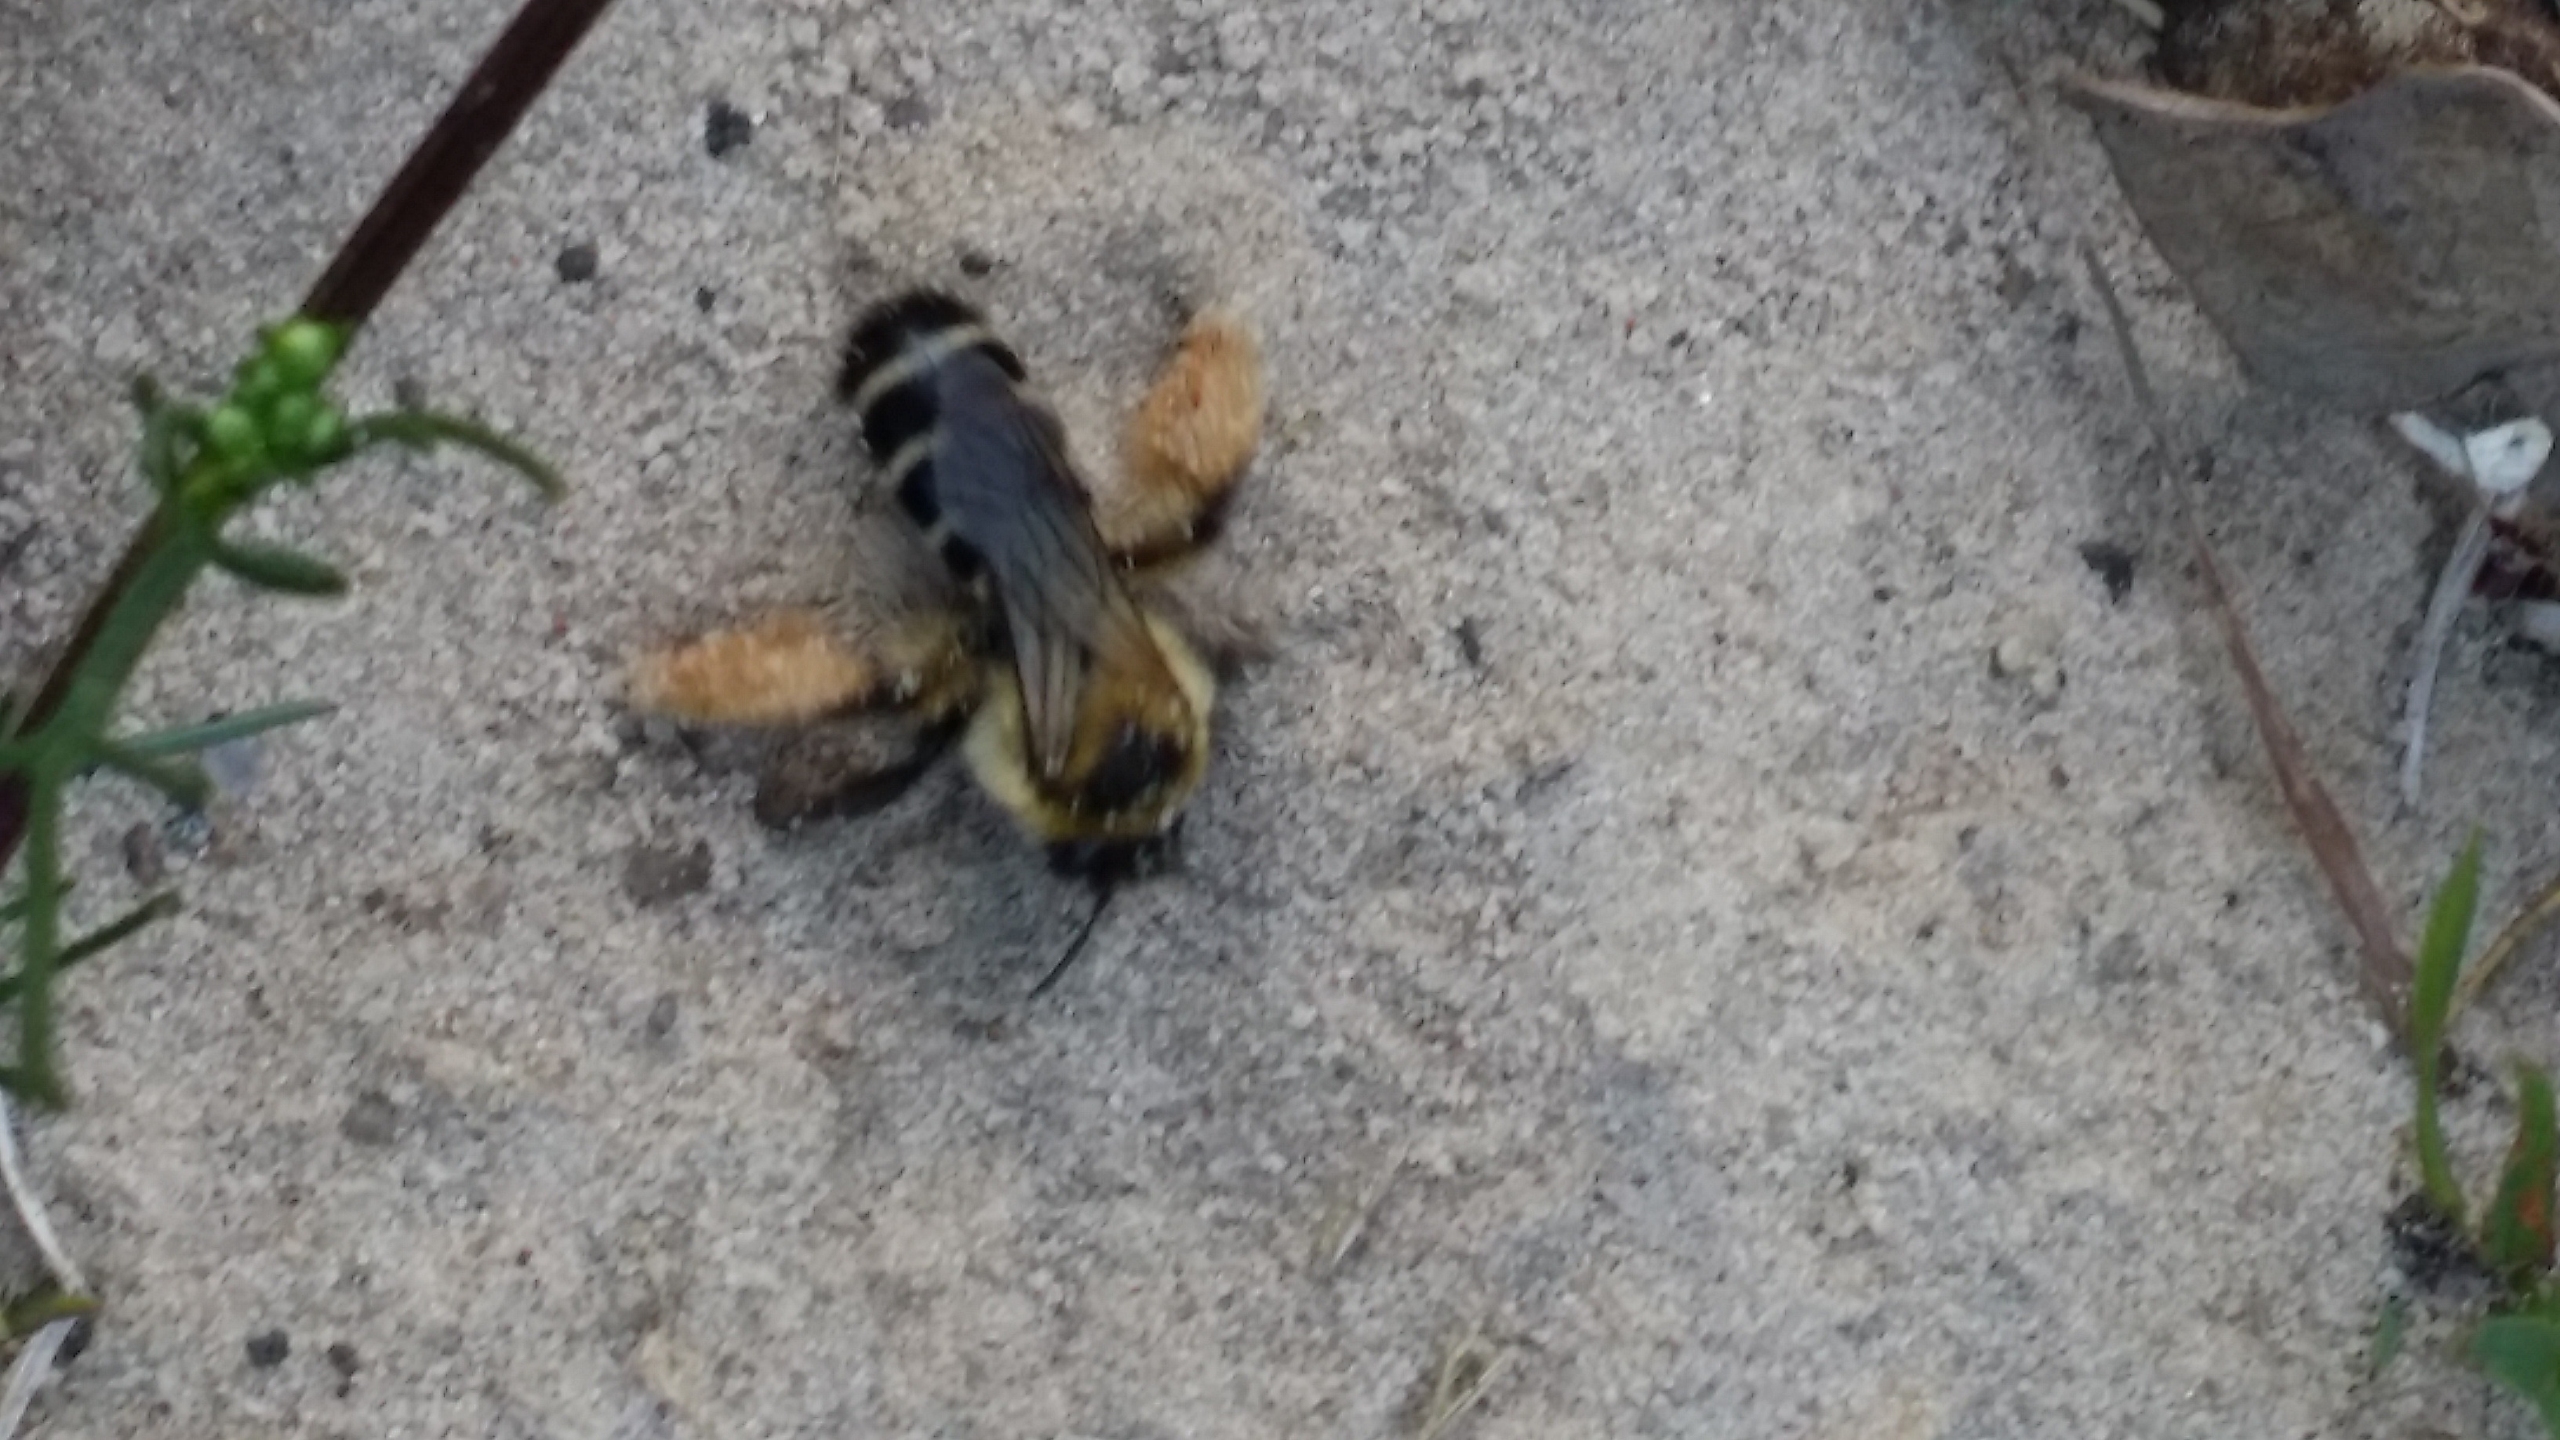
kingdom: Animalia
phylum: Arthropoda
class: Insecta
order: Hymenoptera
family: Melittidae
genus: Dasypoda
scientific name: Dasypoda hirtipes
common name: Pragtbuksebi
